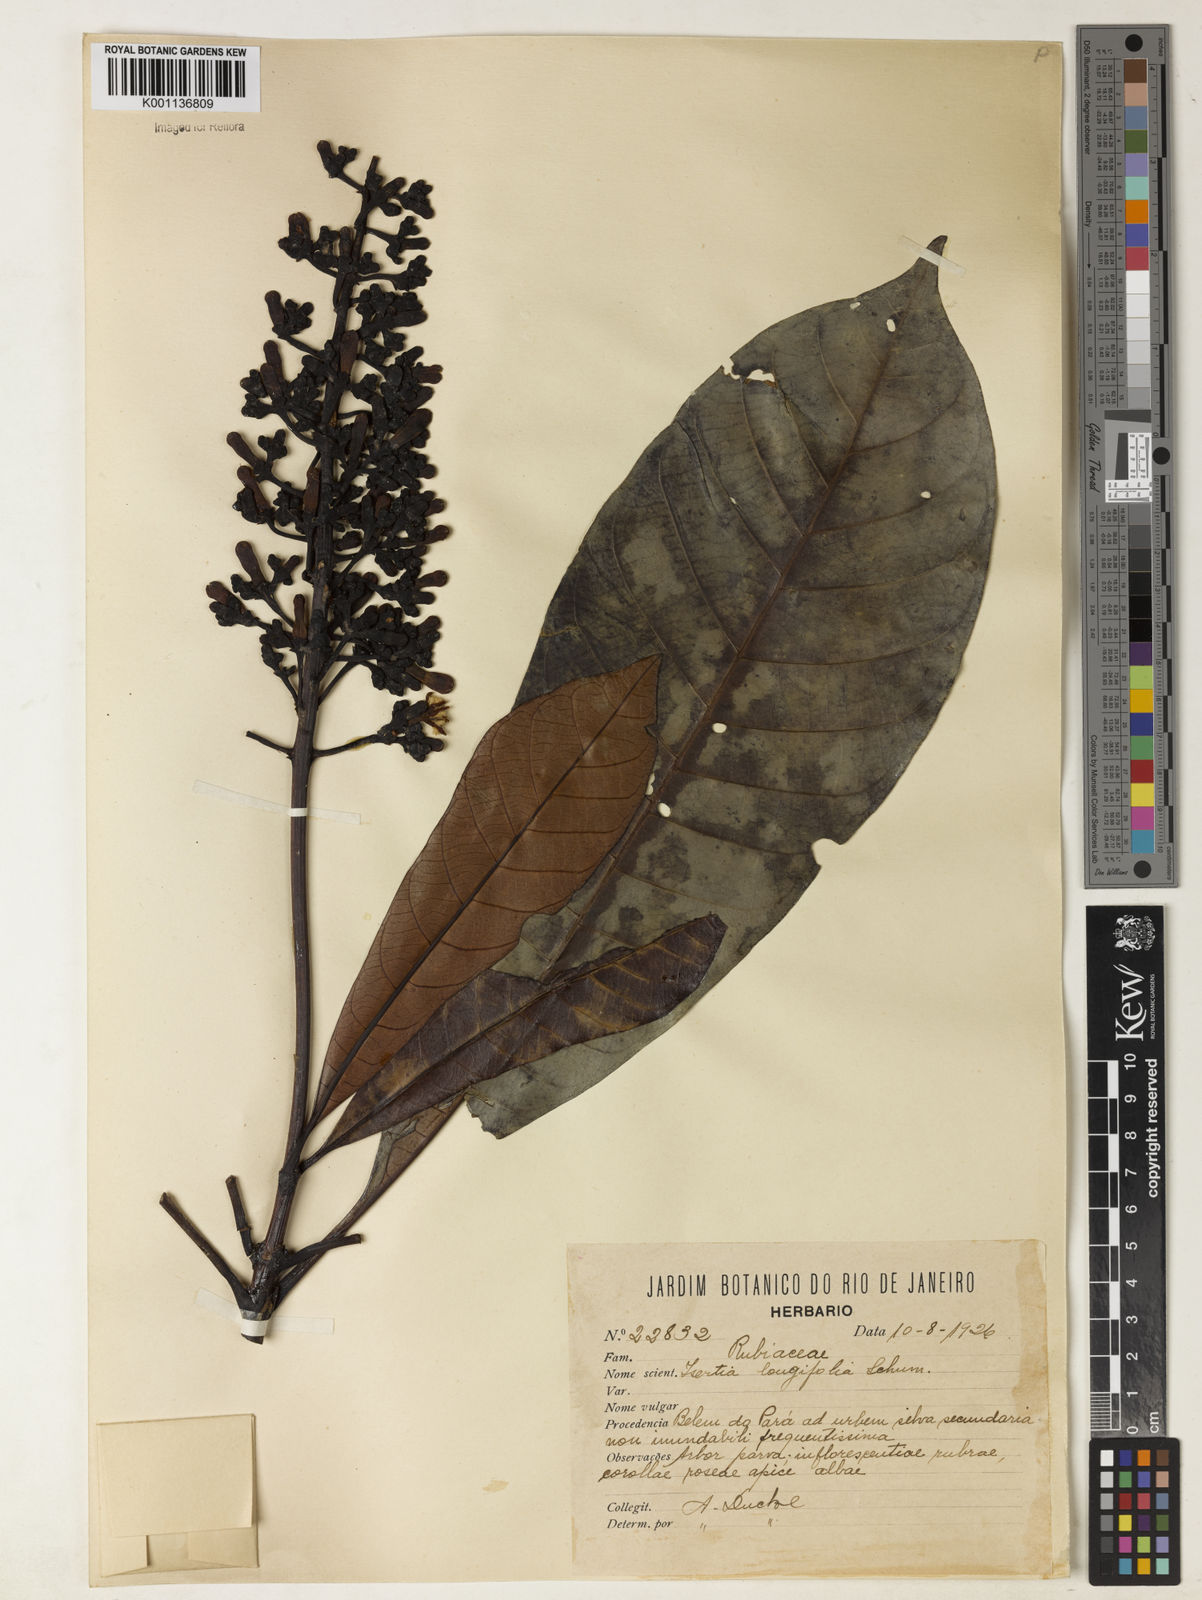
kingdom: Plantae
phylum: Tracheophyta
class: Magnoliopsida
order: Gentianales
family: Rubiaceae
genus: Isertia
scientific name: Isertia longifolia
